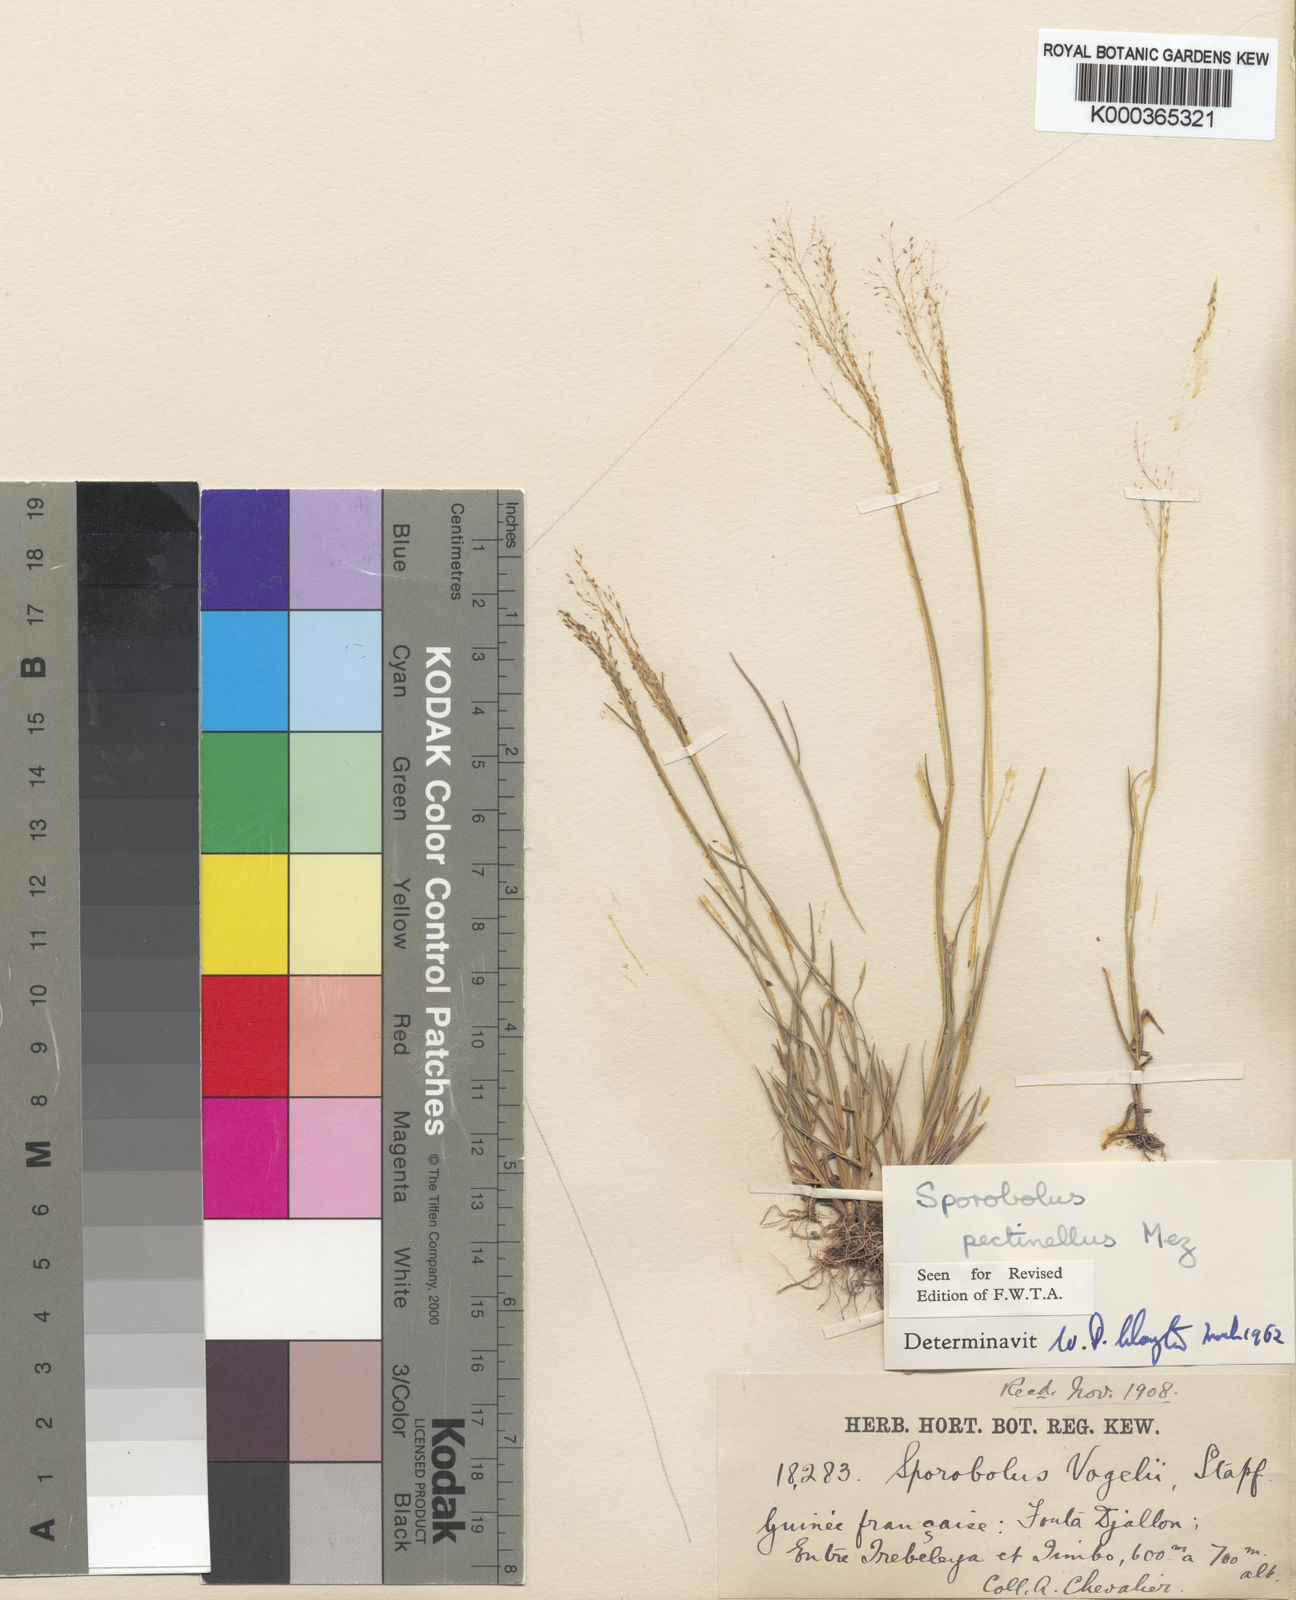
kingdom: Plantae
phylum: Tracheophyta
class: Liliopsida
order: Poales
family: Poaceae
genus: Sporobolus
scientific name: Sporobolus pectinellus
